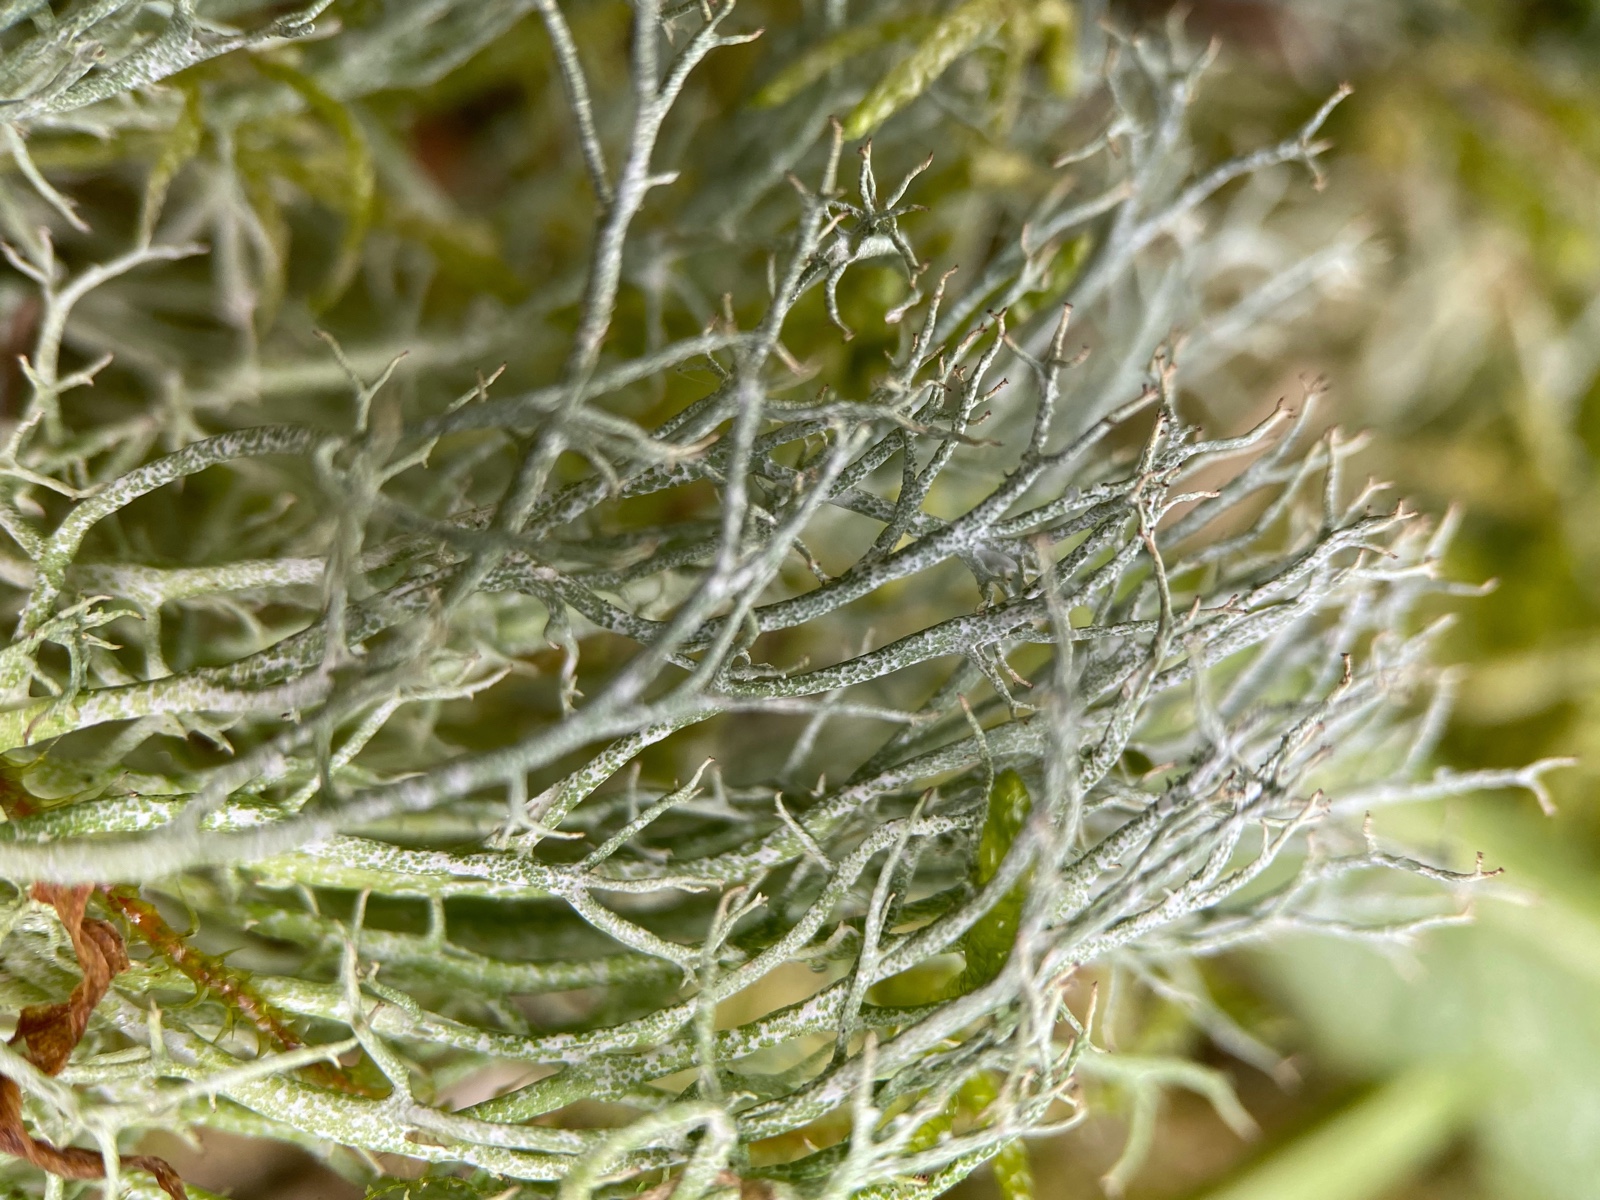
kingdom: Fungi
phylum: Ascomycota
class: Lecanoromycetes
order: Lecanorales
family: Cladoniaceae
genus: Cladonia
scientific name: Cladonia furcata
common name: kløftet bægerlav
